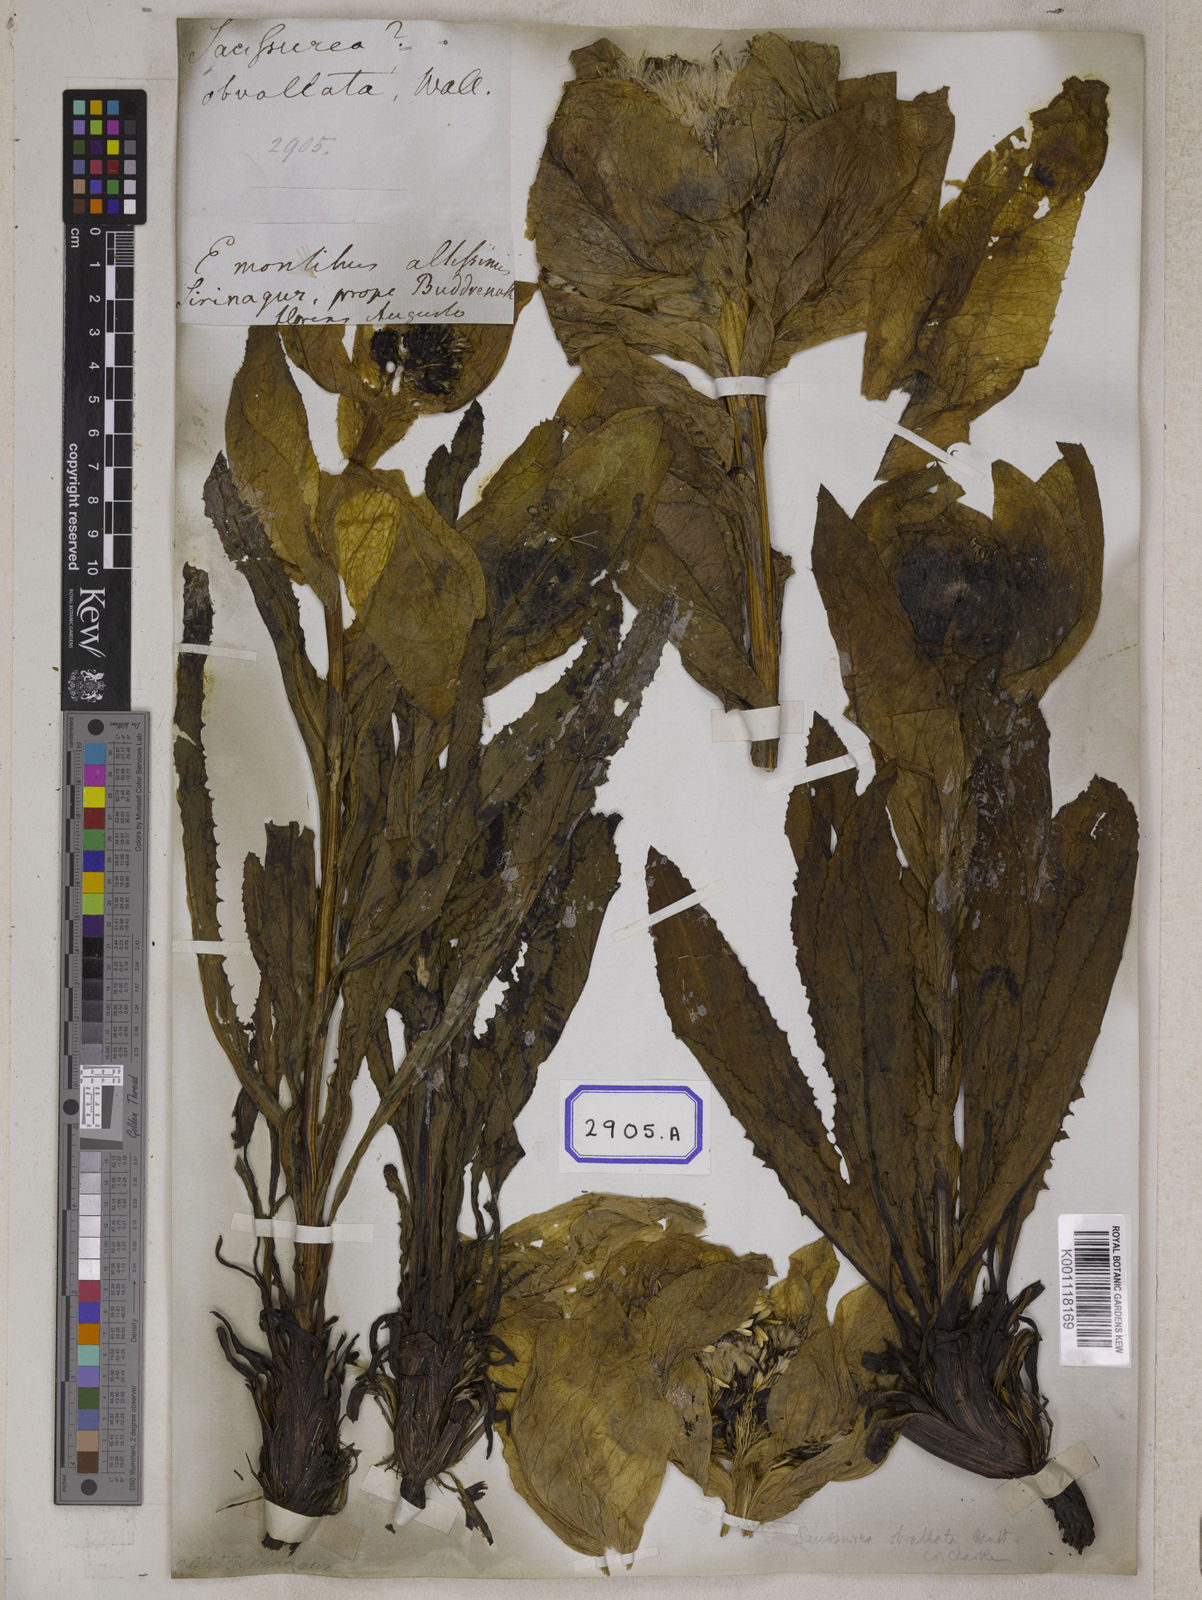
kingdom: Plantae
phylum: Tracheophyta
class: Magnoliopsida
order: Asterales
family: Asteraceae
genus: Carduus
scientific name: Carduus
